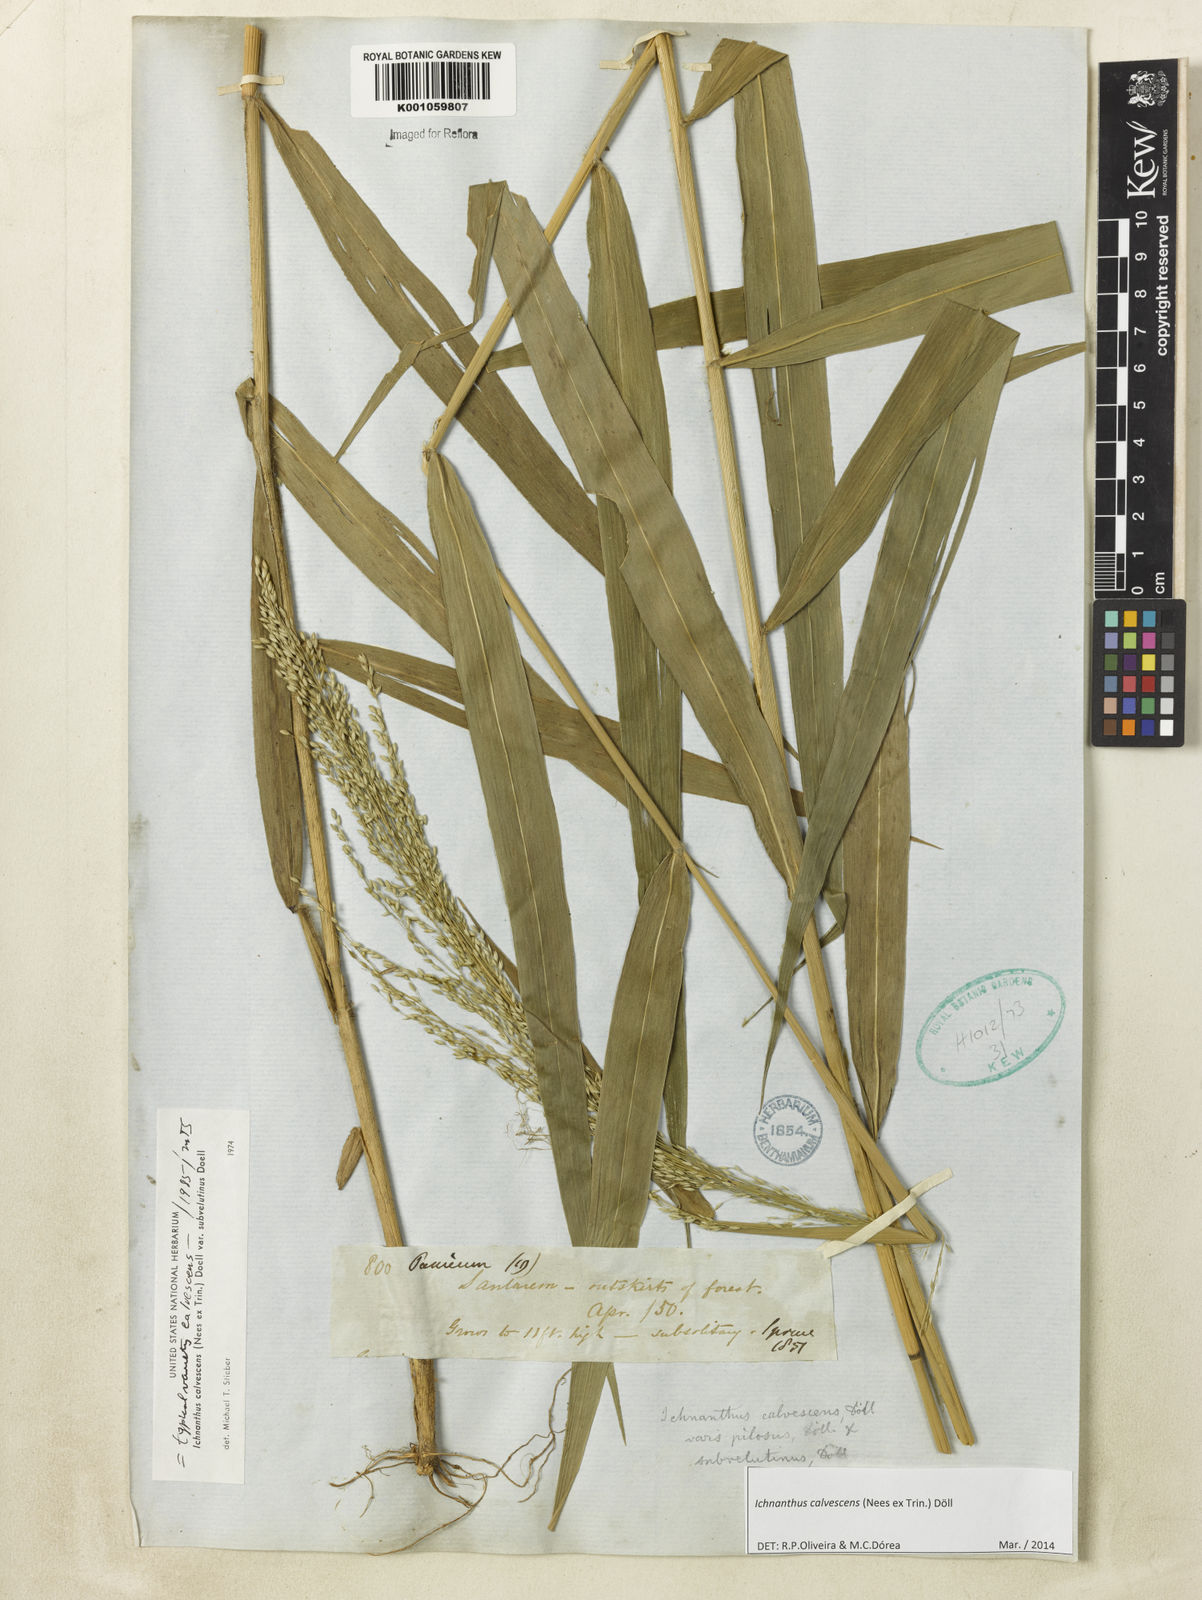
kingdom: Plantae
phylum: Tracheophyta
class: Liliopsida
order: Poales
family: Poaceae
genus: Ichnanthus
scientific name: Ichnanthus
